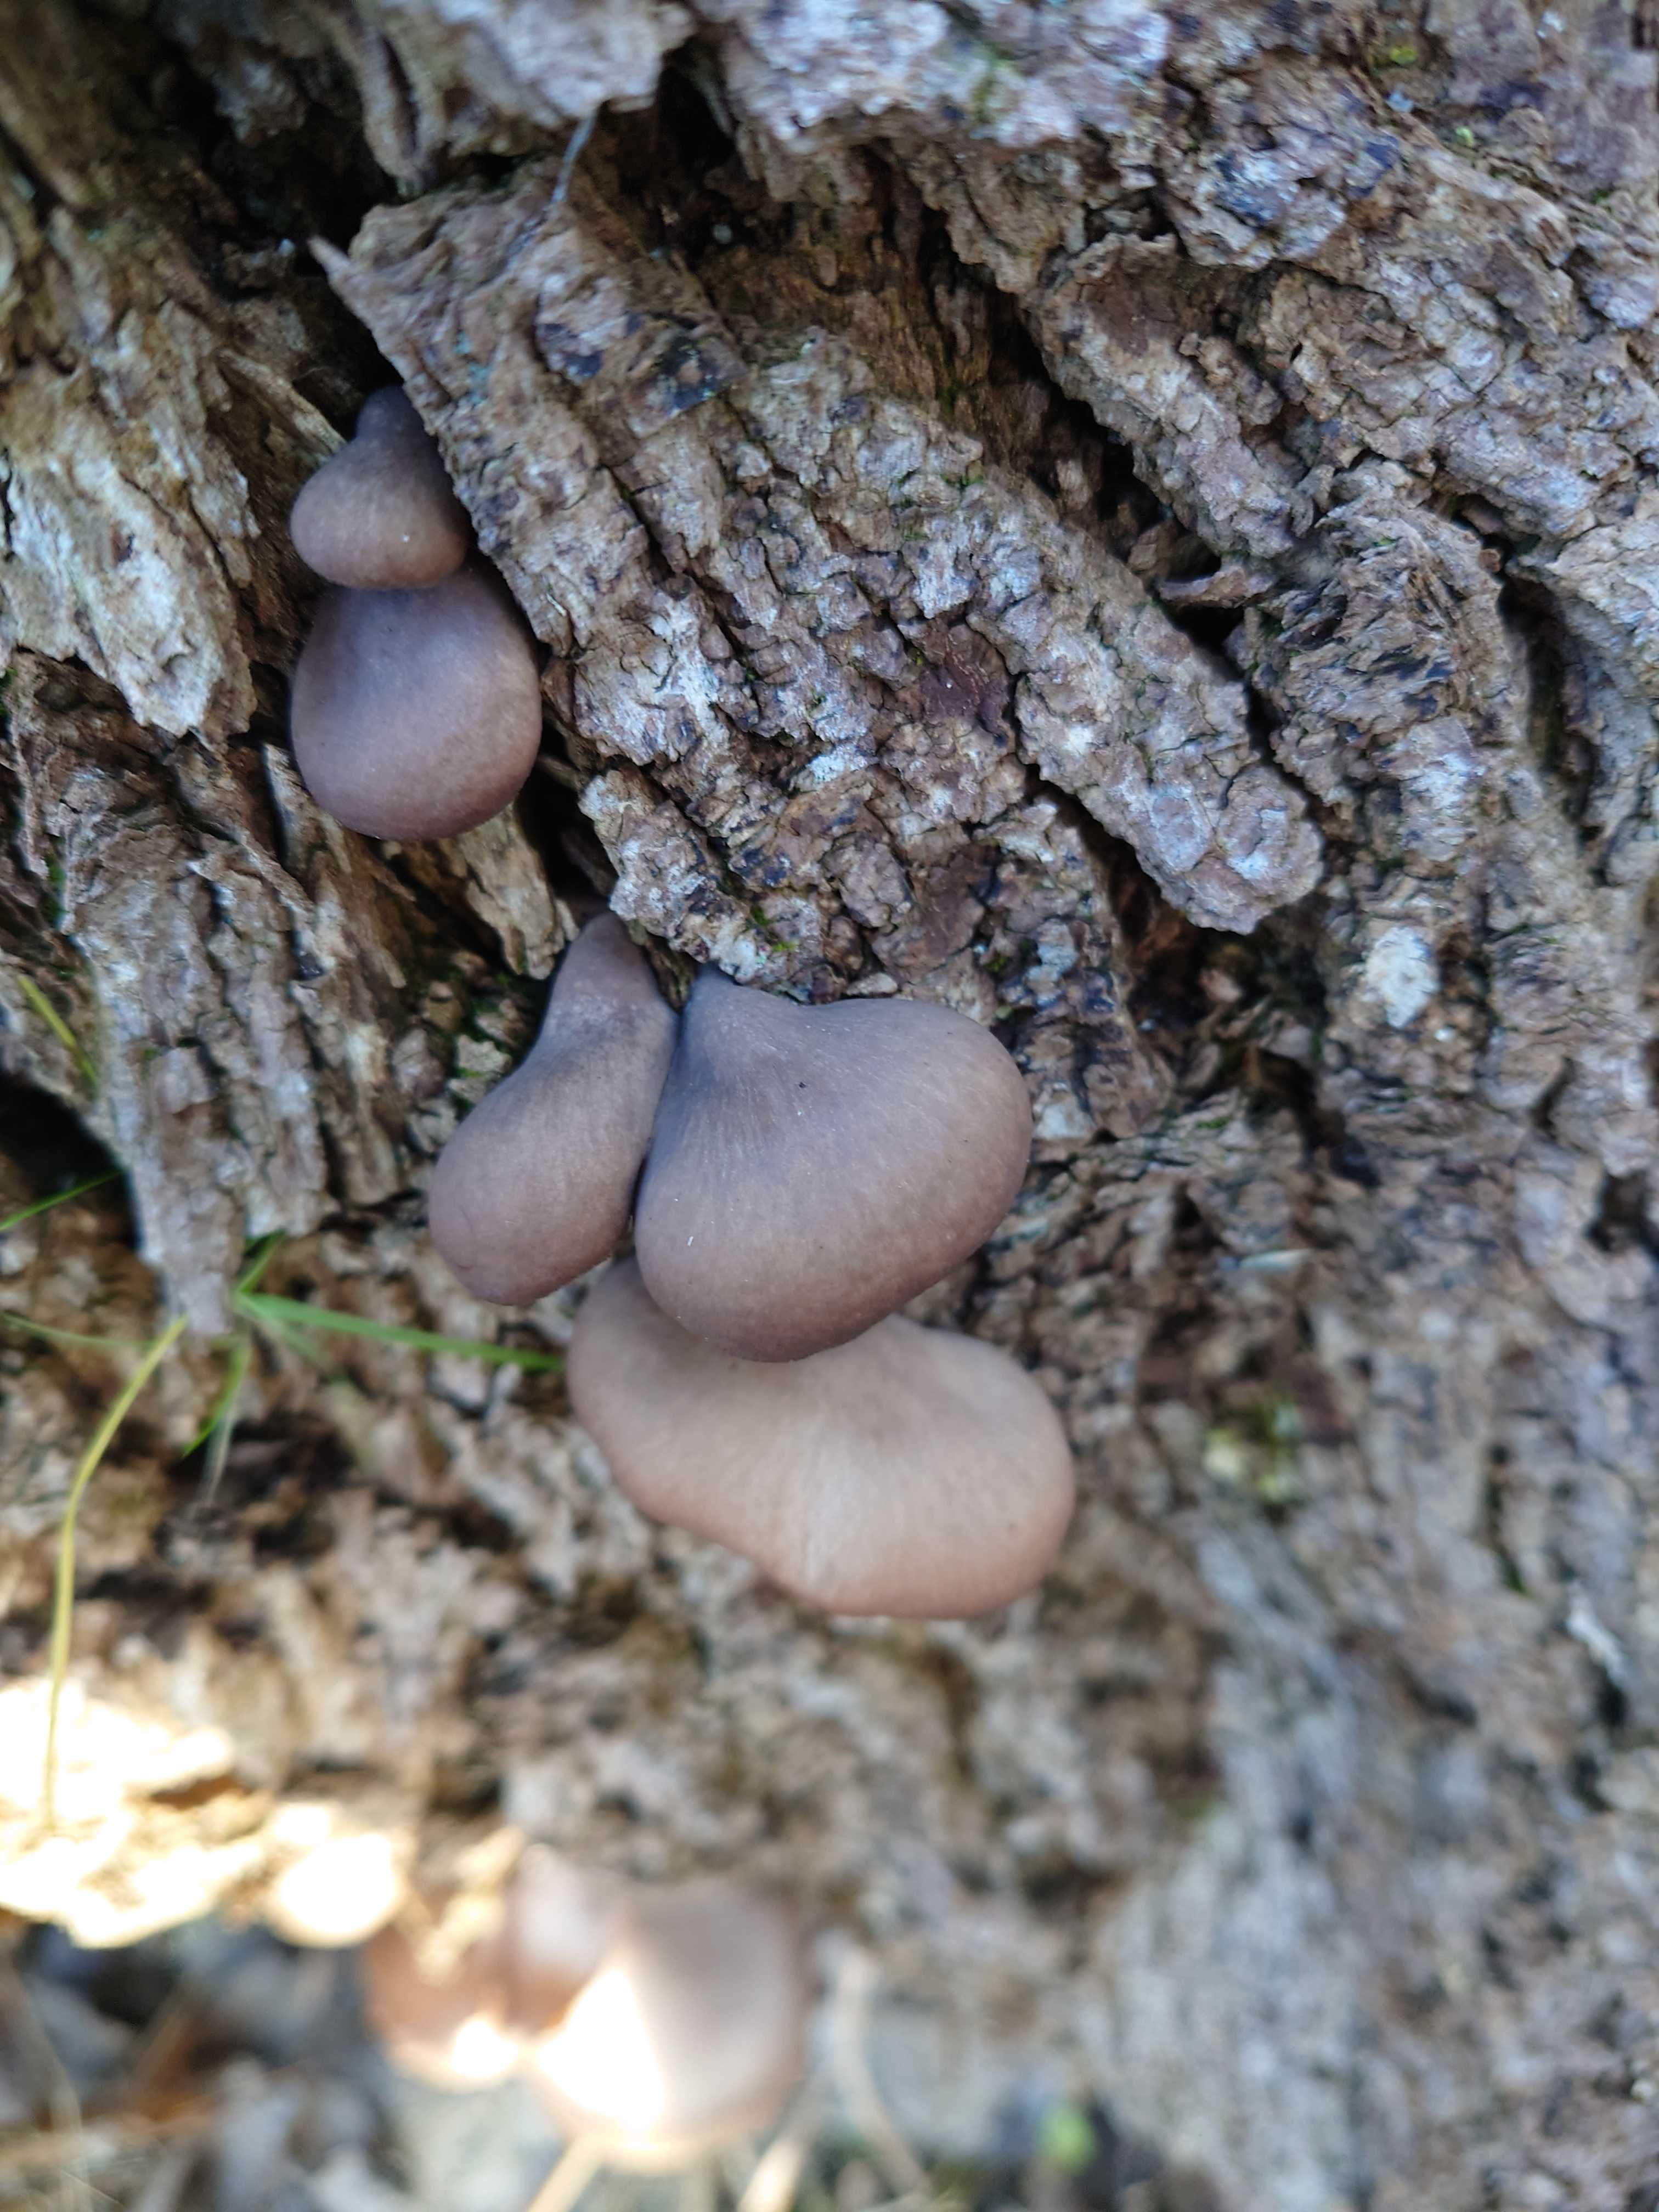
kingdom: Fungi
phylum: Basidiomycota
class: Agaricomycetes
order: Agaricales
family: Pleurotaceae
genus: Pleurotus
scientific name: Pleurotus ostreatus
